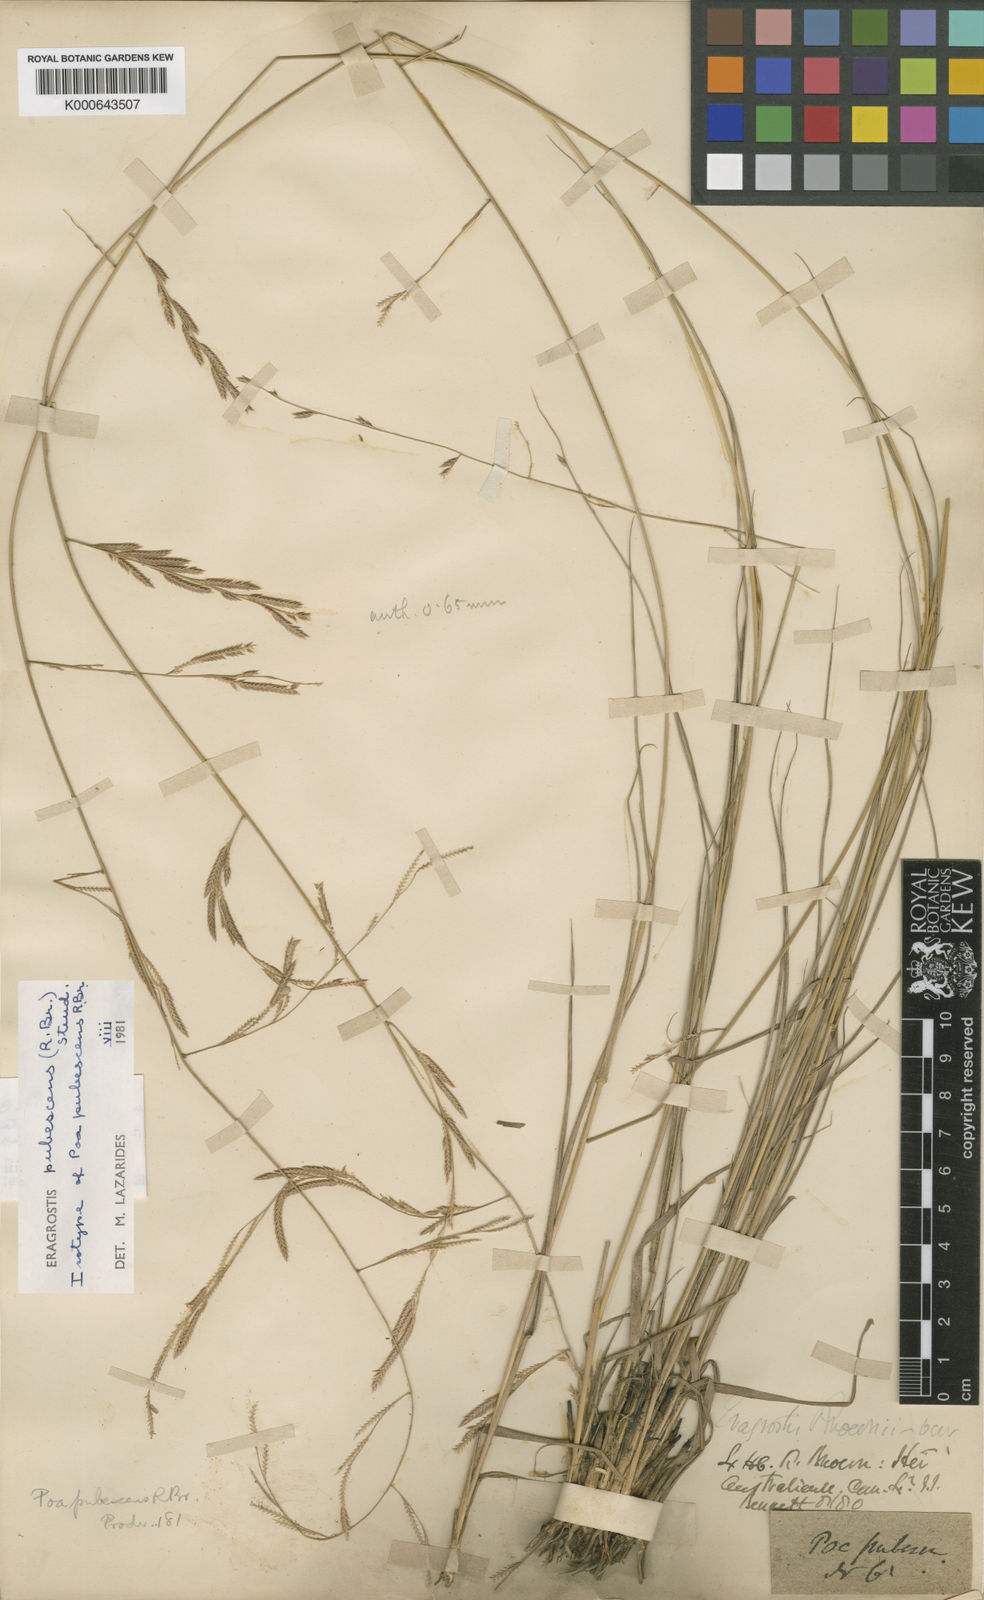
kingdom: Plantae
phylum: Tracheophyta
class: Liliopsida
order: Poales
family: Poaceae
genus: Eragrostis
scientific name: Eragrostis pubescens
